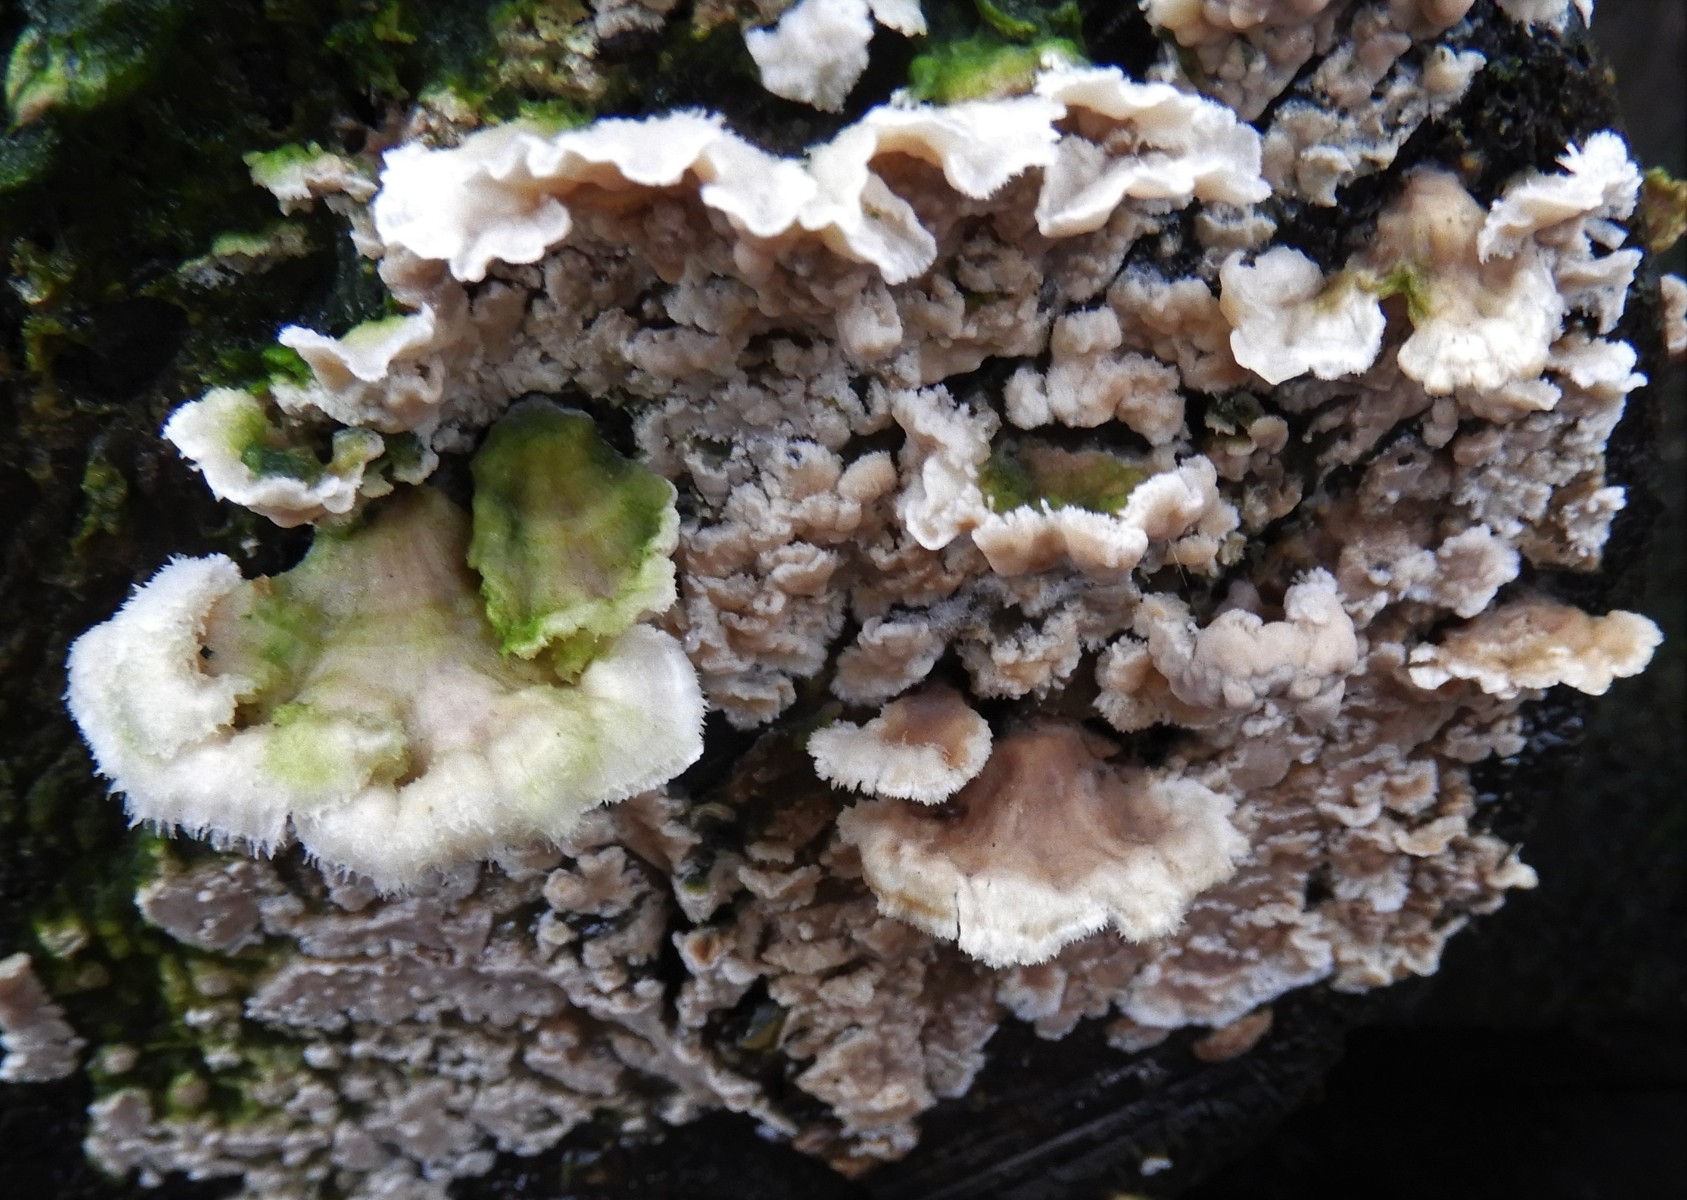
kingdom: Fungi
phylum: Basidiomycota
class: Agaricomycetes
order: Agaricales
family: Physalacriaceae
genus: Cylindrobasidium
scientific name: Cylindrobasidium evolvens
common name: sprækkehinde
